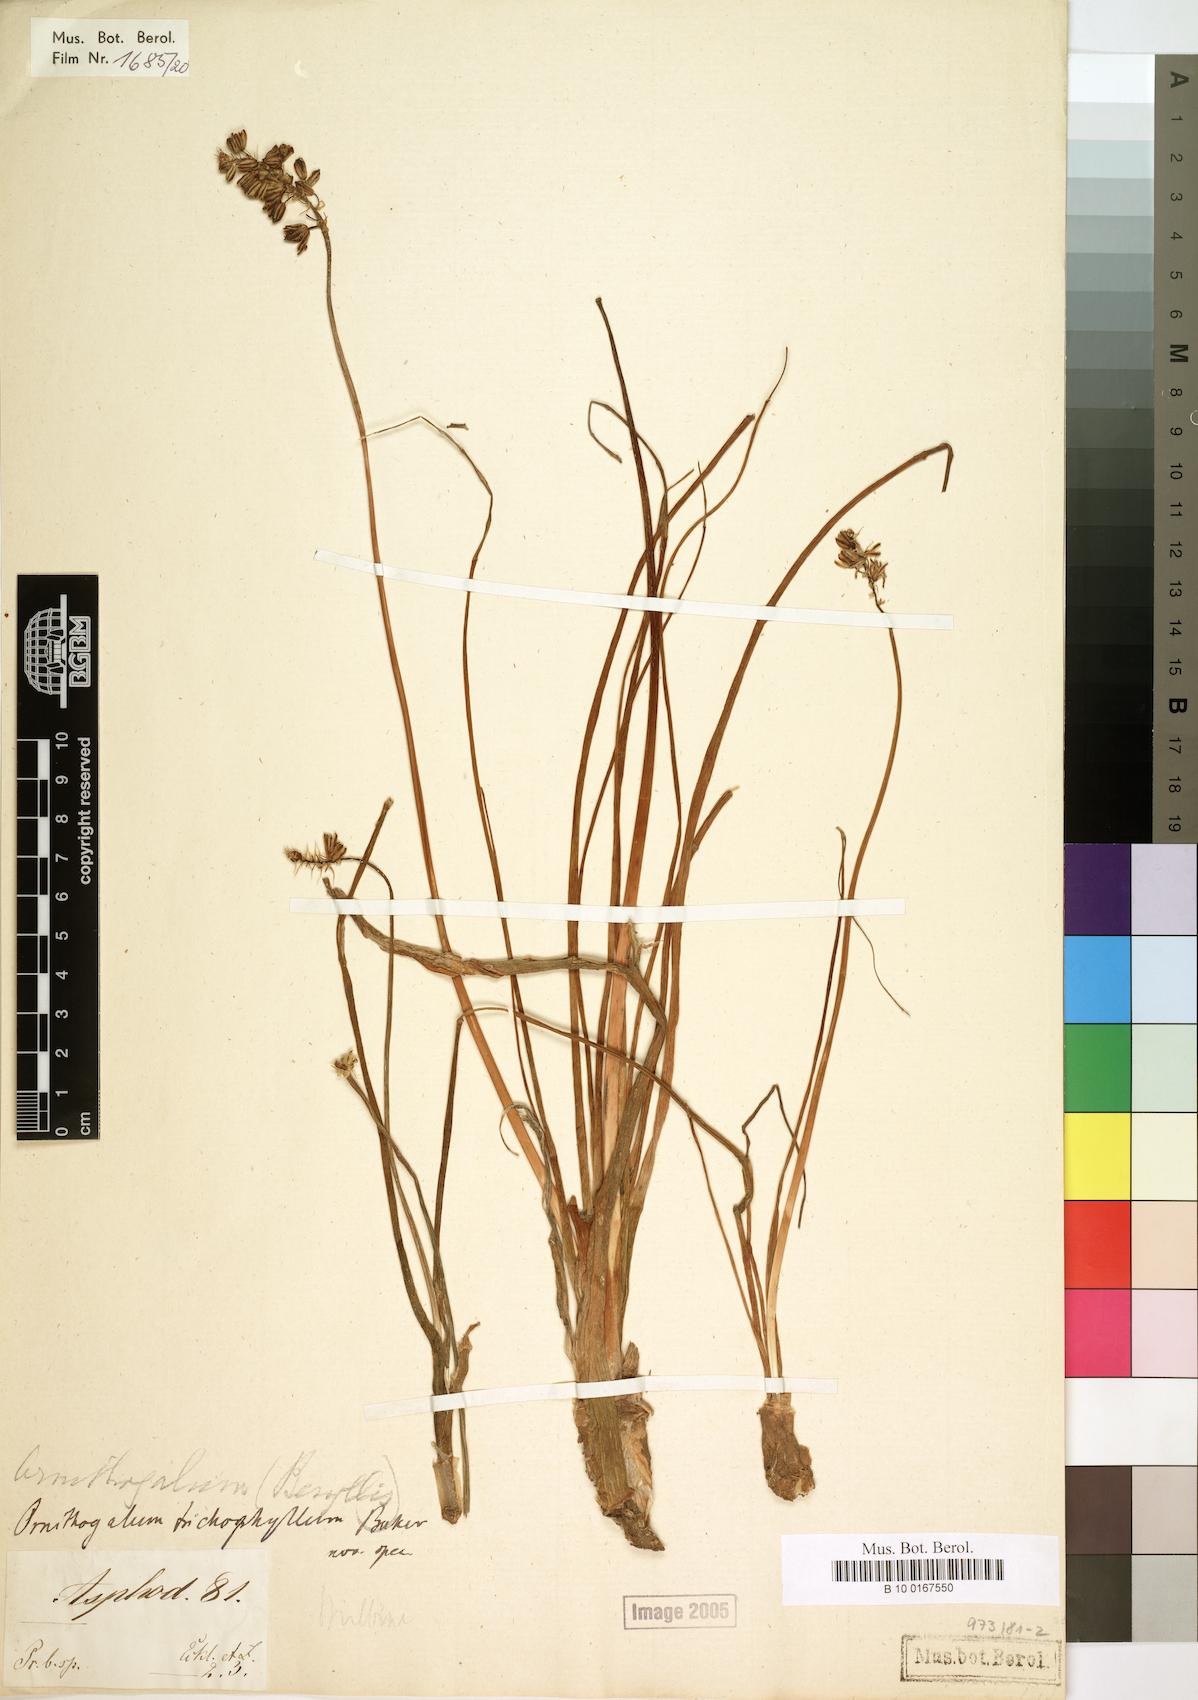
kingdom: Plantae
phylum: Tracheophyta
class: Liliopsida
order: Asparagales
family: Asparagaceae
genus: Ornithogalum
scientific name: Ornithogalum graminifolium
